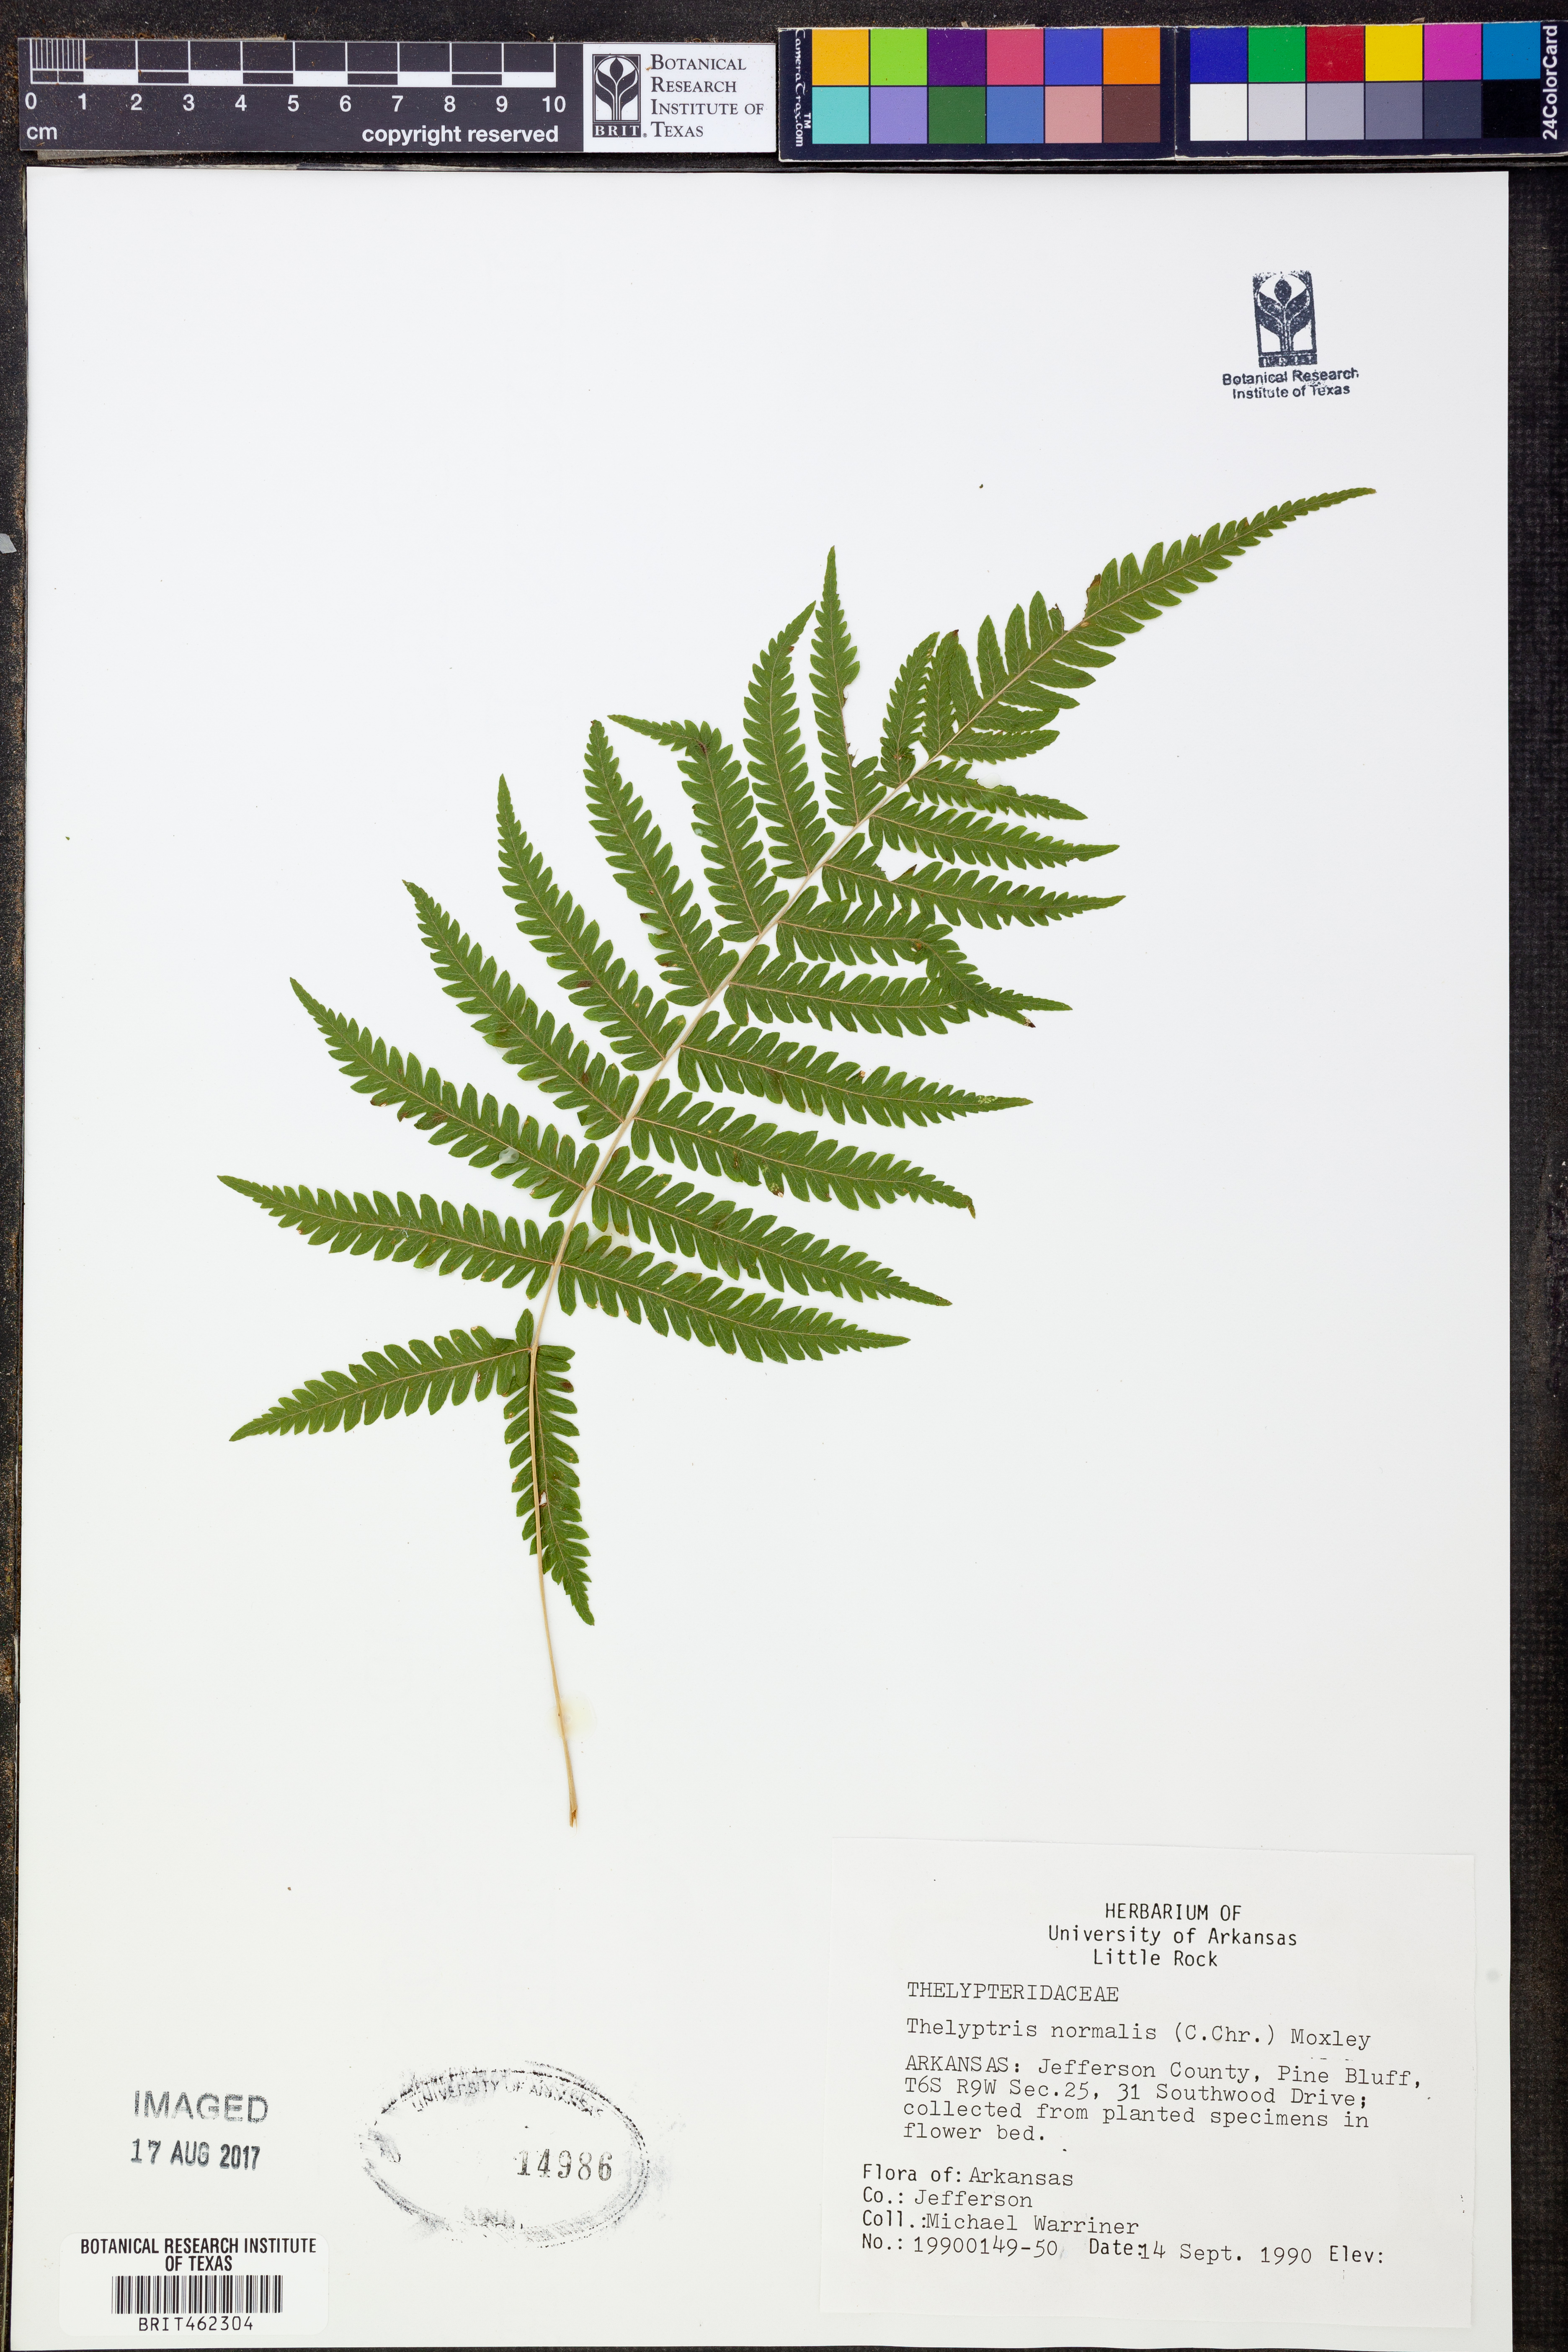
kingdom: Plantae
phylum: Tracheophyta
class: Polypodiopsida
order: Polypodiales
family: Thelypteridaceae
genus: Pelazoneuron
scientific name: Pelazoneuron kunthii
